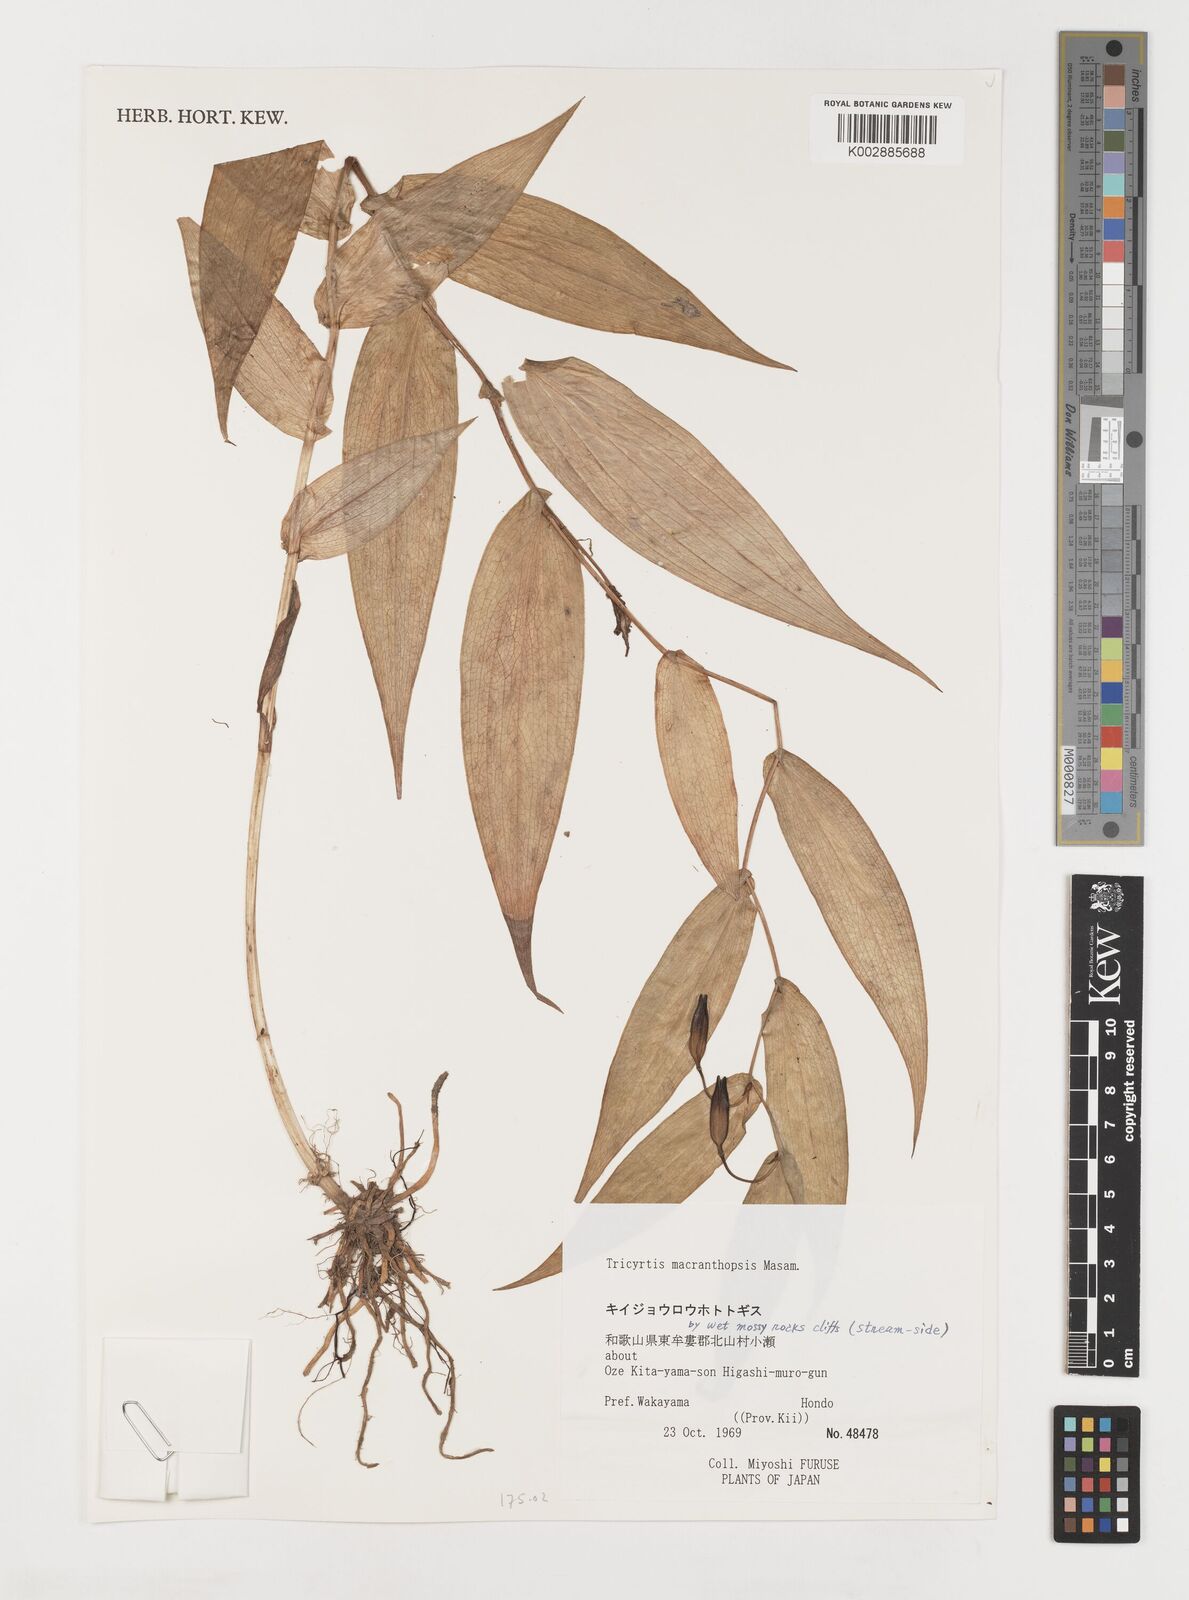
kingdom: Plantae
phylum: Tracheophyta
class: Liliopsida
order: Liliales
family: Liliaceae
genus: Tricyrtis
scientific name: Tricyrtis macranthopsis
